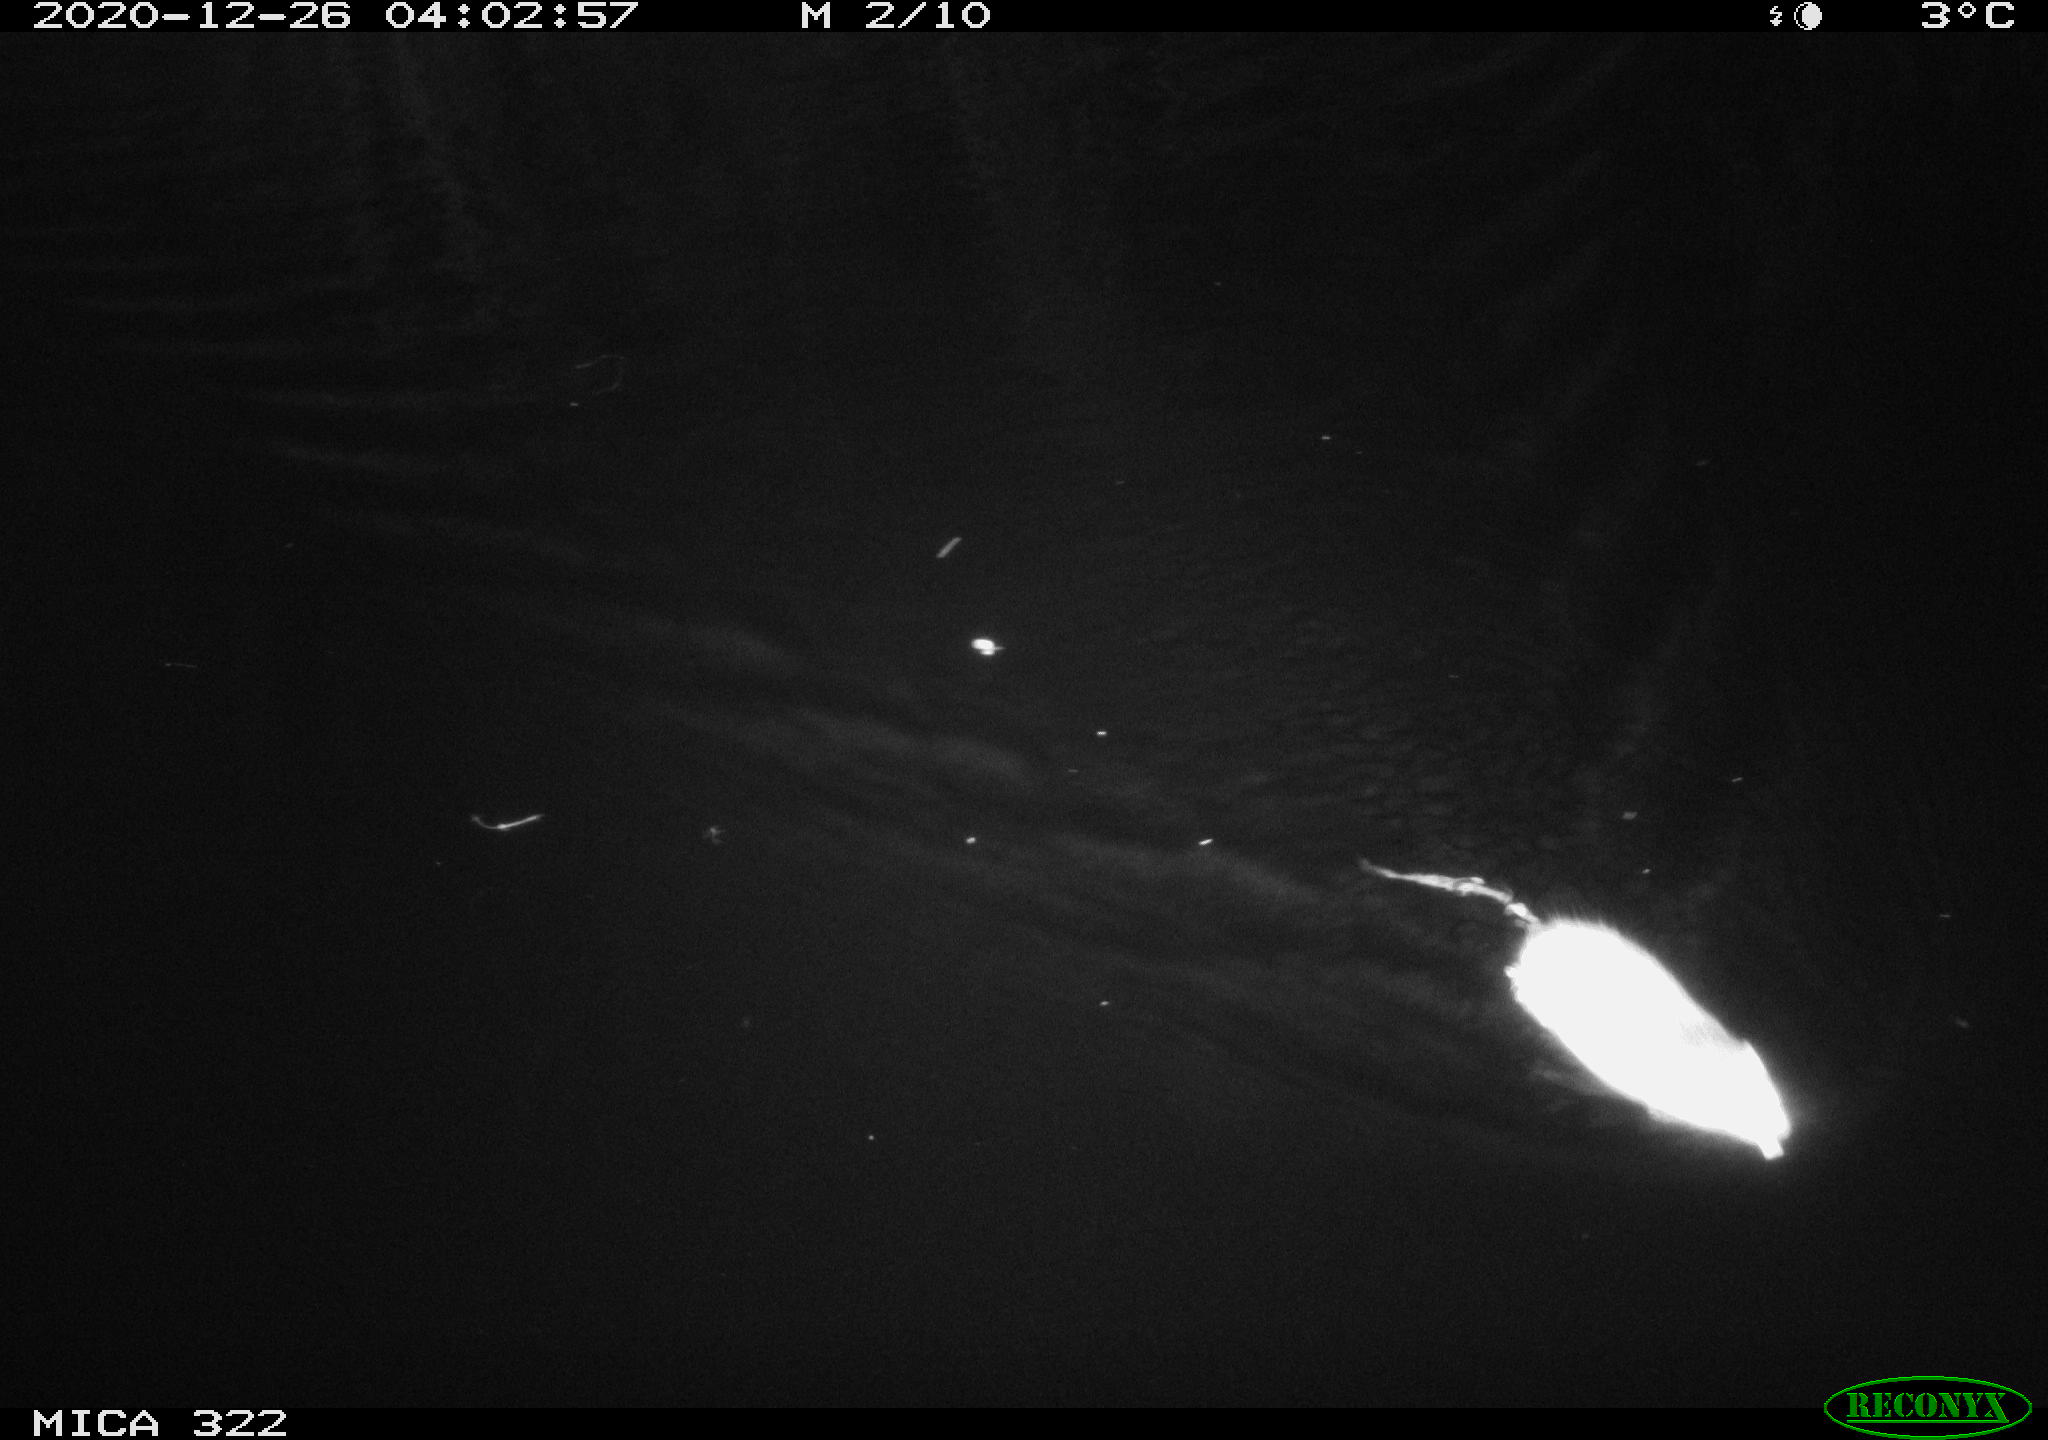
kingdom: Animalia
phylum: Chordata
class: Mammalia
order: Rodentia
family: Cricetidae
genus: Ondatra
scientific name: Ondatra zibethicus
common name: Muskrat
